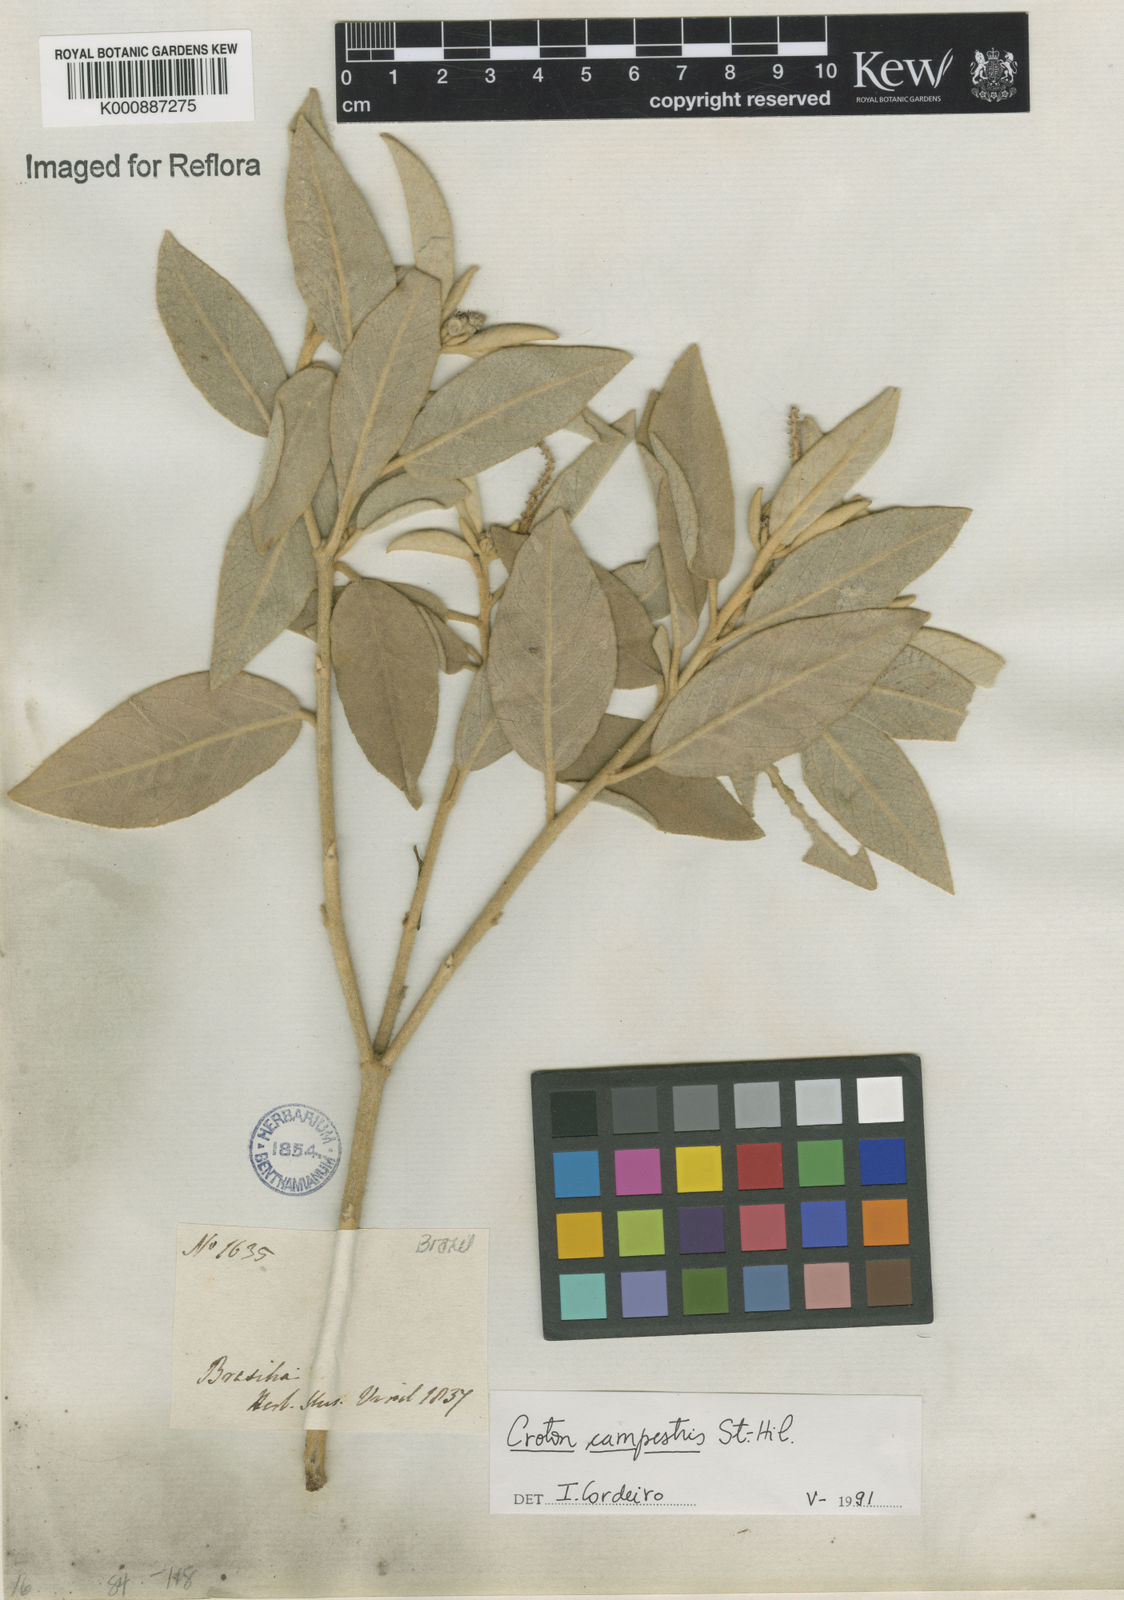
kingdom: Plantae
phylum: Tracheophyta
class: Magnoliopsida
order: Malpighiales
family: Euphorbiaceae
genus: Croton
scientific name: Croton campestris
